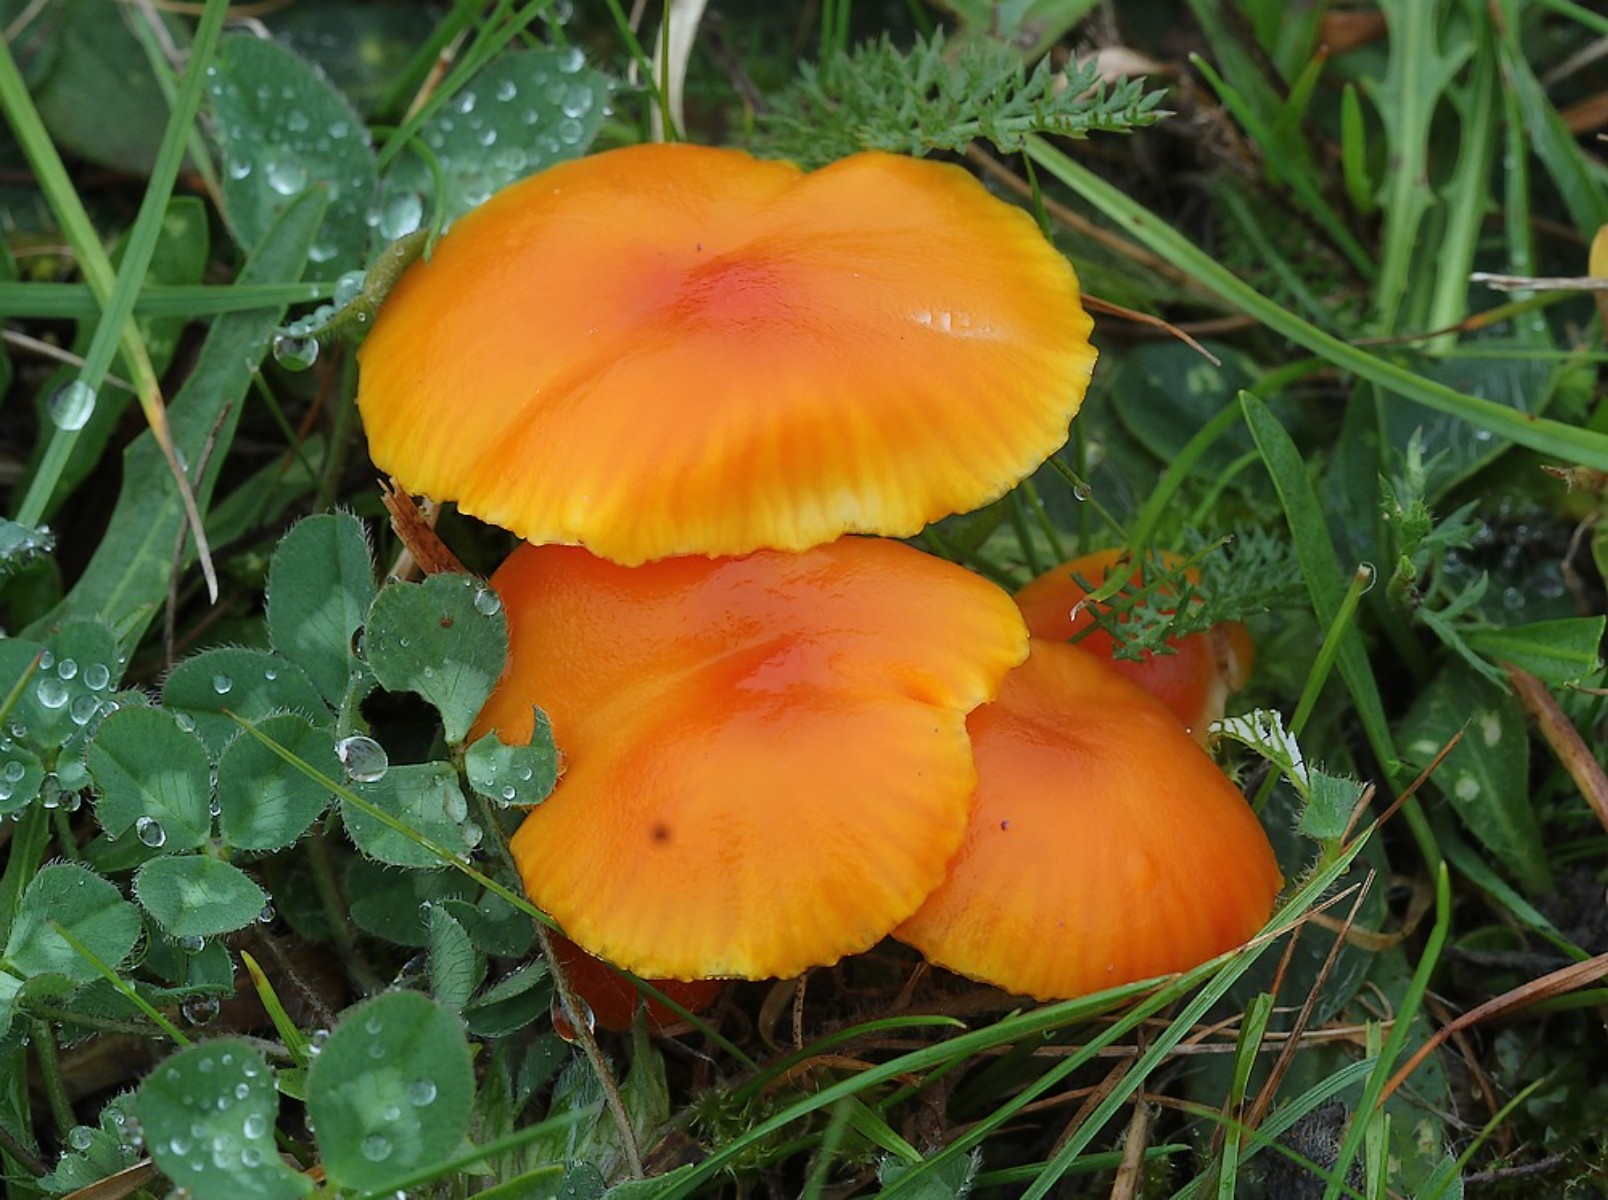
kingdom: Fungi
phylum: Basidiomycota
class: Agaricomycetes
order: Agaricales
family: Hygrophoraceae
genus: Hygrocybe
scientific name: Hygrocybe miniata
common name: mønje-vokshat
